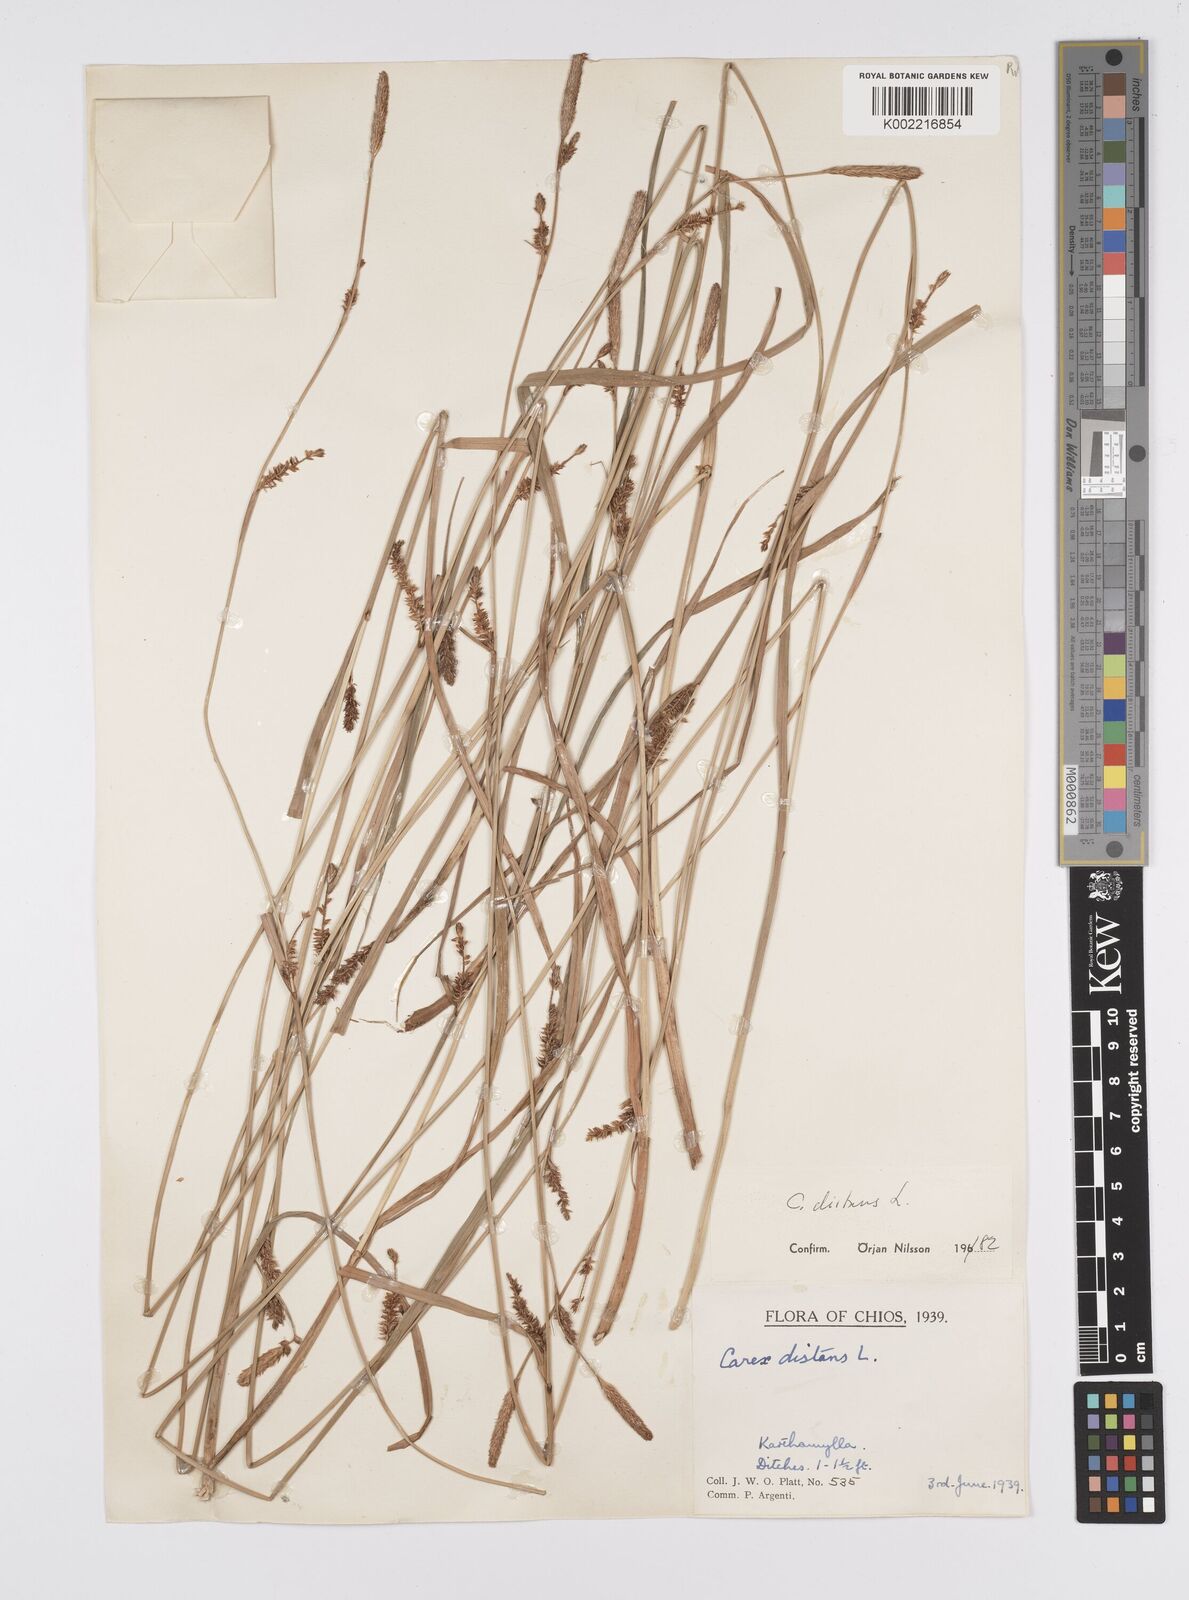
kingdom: Plantae
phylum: Tracheophyta
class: Liliopsida
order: Poales
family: Cyperaceae
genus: Carex
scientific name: Carex
